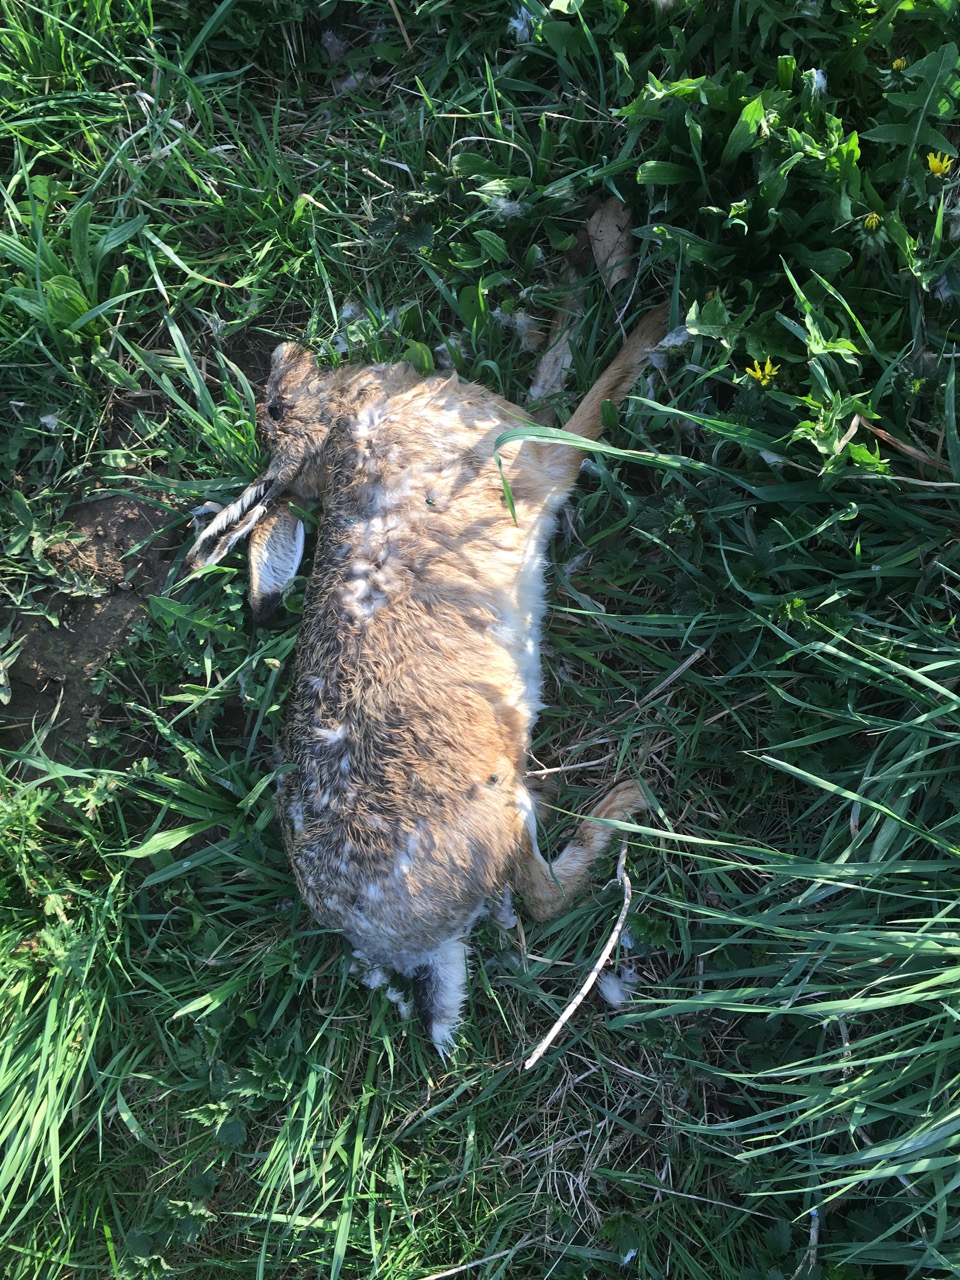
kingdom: Animalia
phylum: Chordata
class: Mammalia
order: Lagomorpha
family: Leporidae
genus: Lepus
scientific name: Lepus europaeus
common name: European hare
